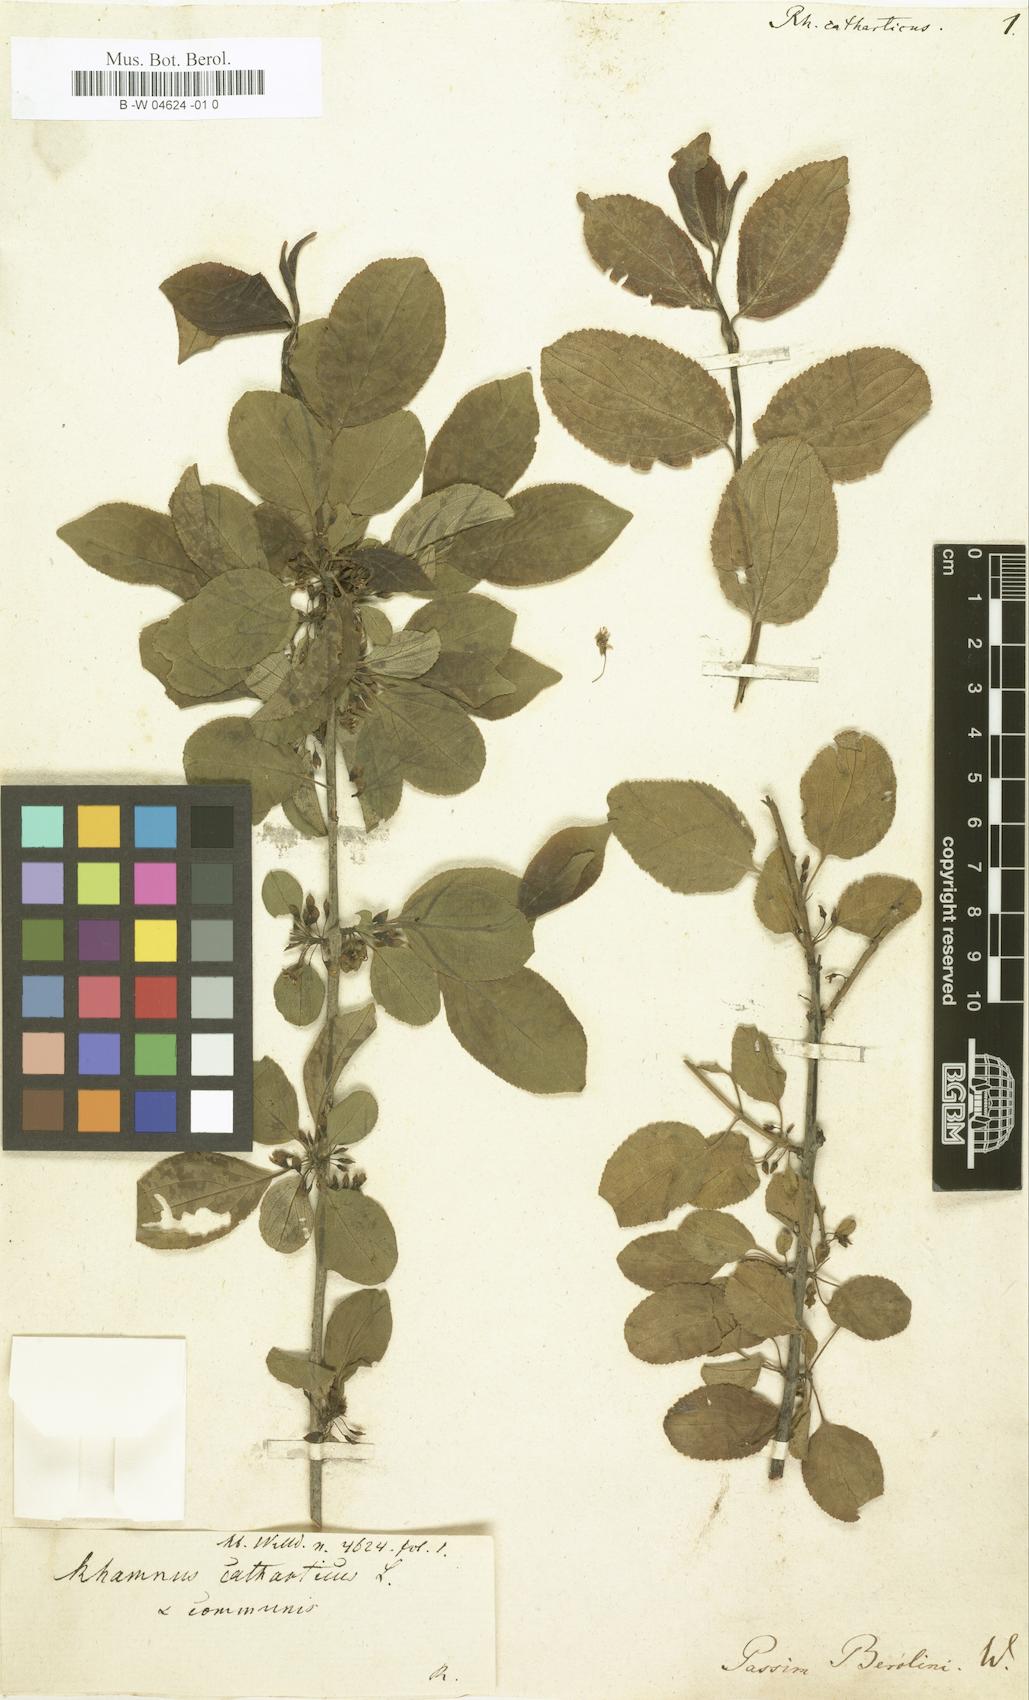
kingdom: Plantae
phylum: Tracheophyta
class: Magnoliopsida
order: Rosales
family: Rhamnaceae
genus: Rhamnus
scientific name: Rhamnus cathartica
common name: Common buckthorn
